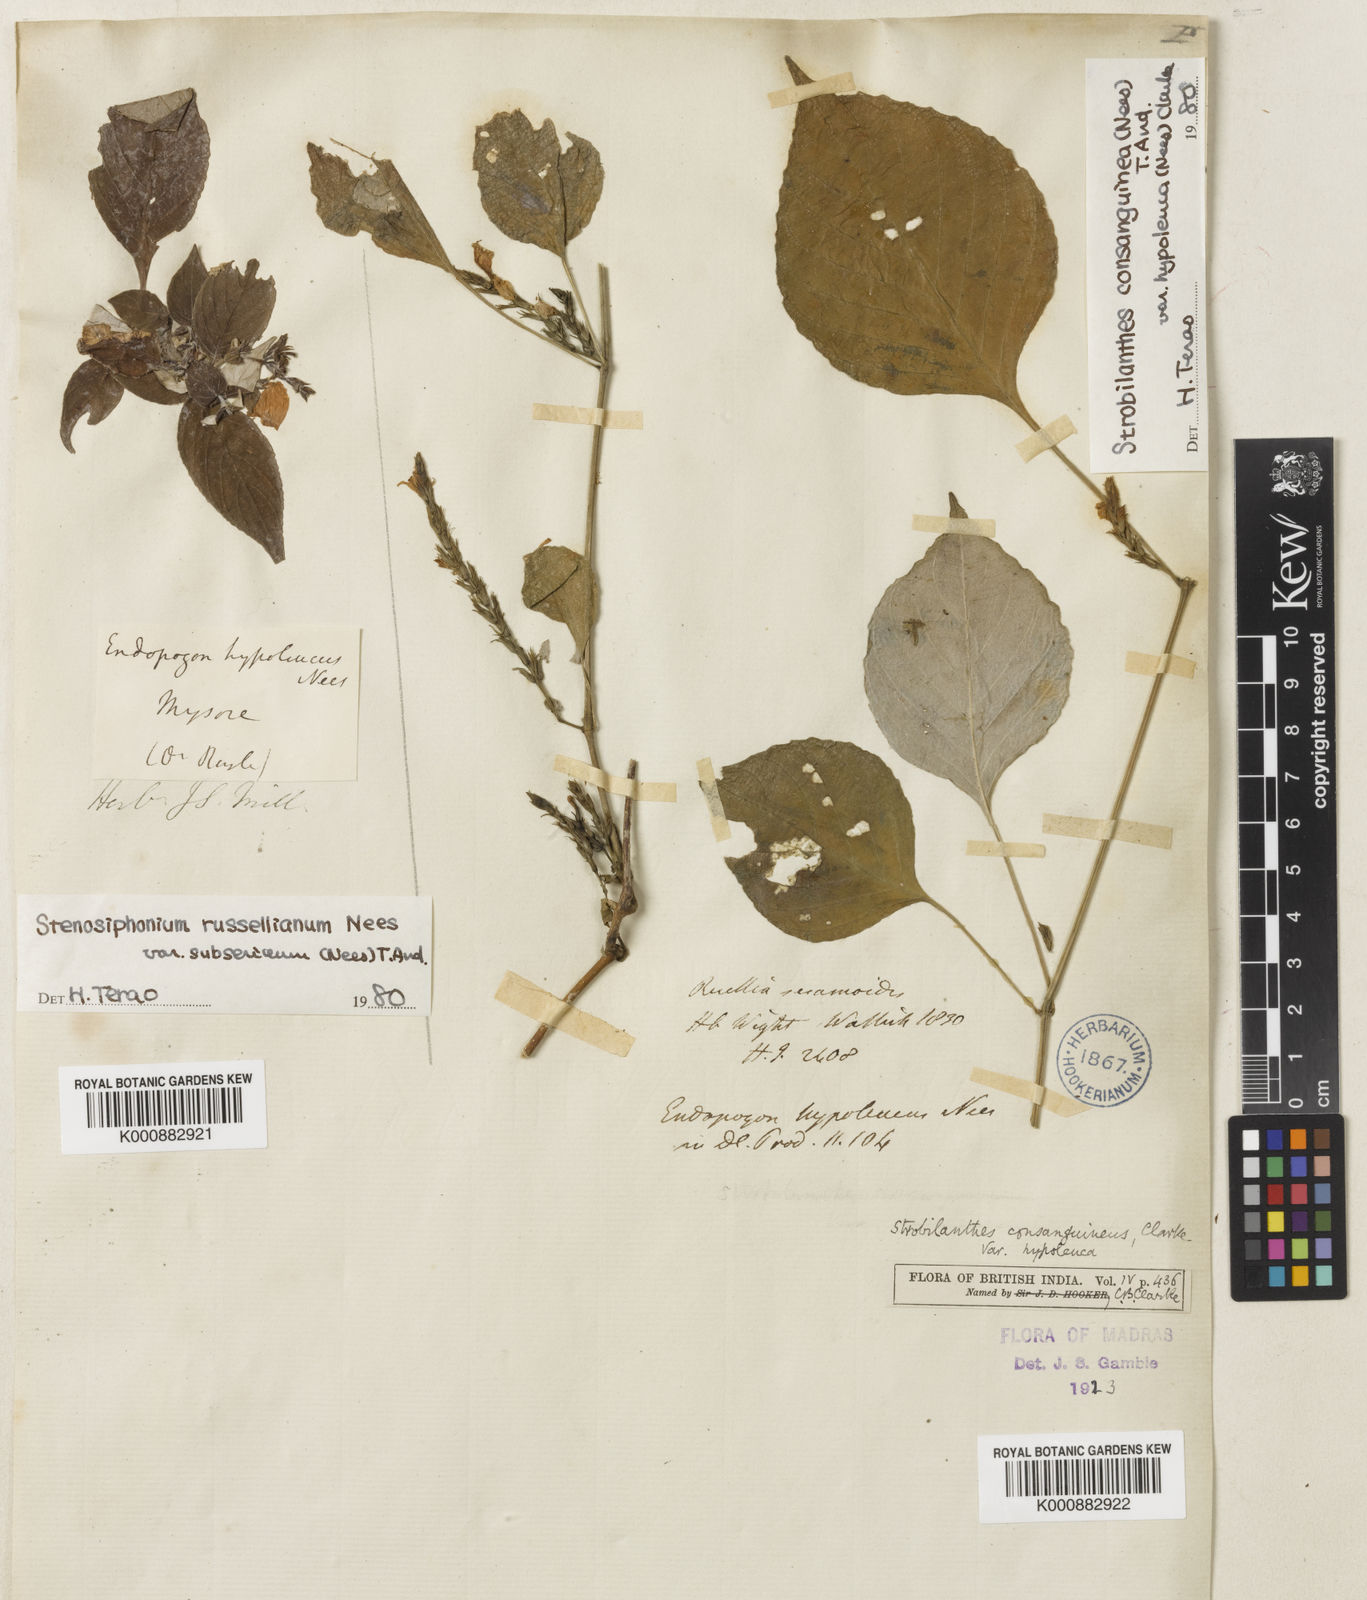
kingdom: Plantae
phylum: Tracheophyta
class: Magnoliopsida
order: Lamiales
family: Acanthaceae
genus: Strobilanthes
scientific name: Strobilanthes diandra
